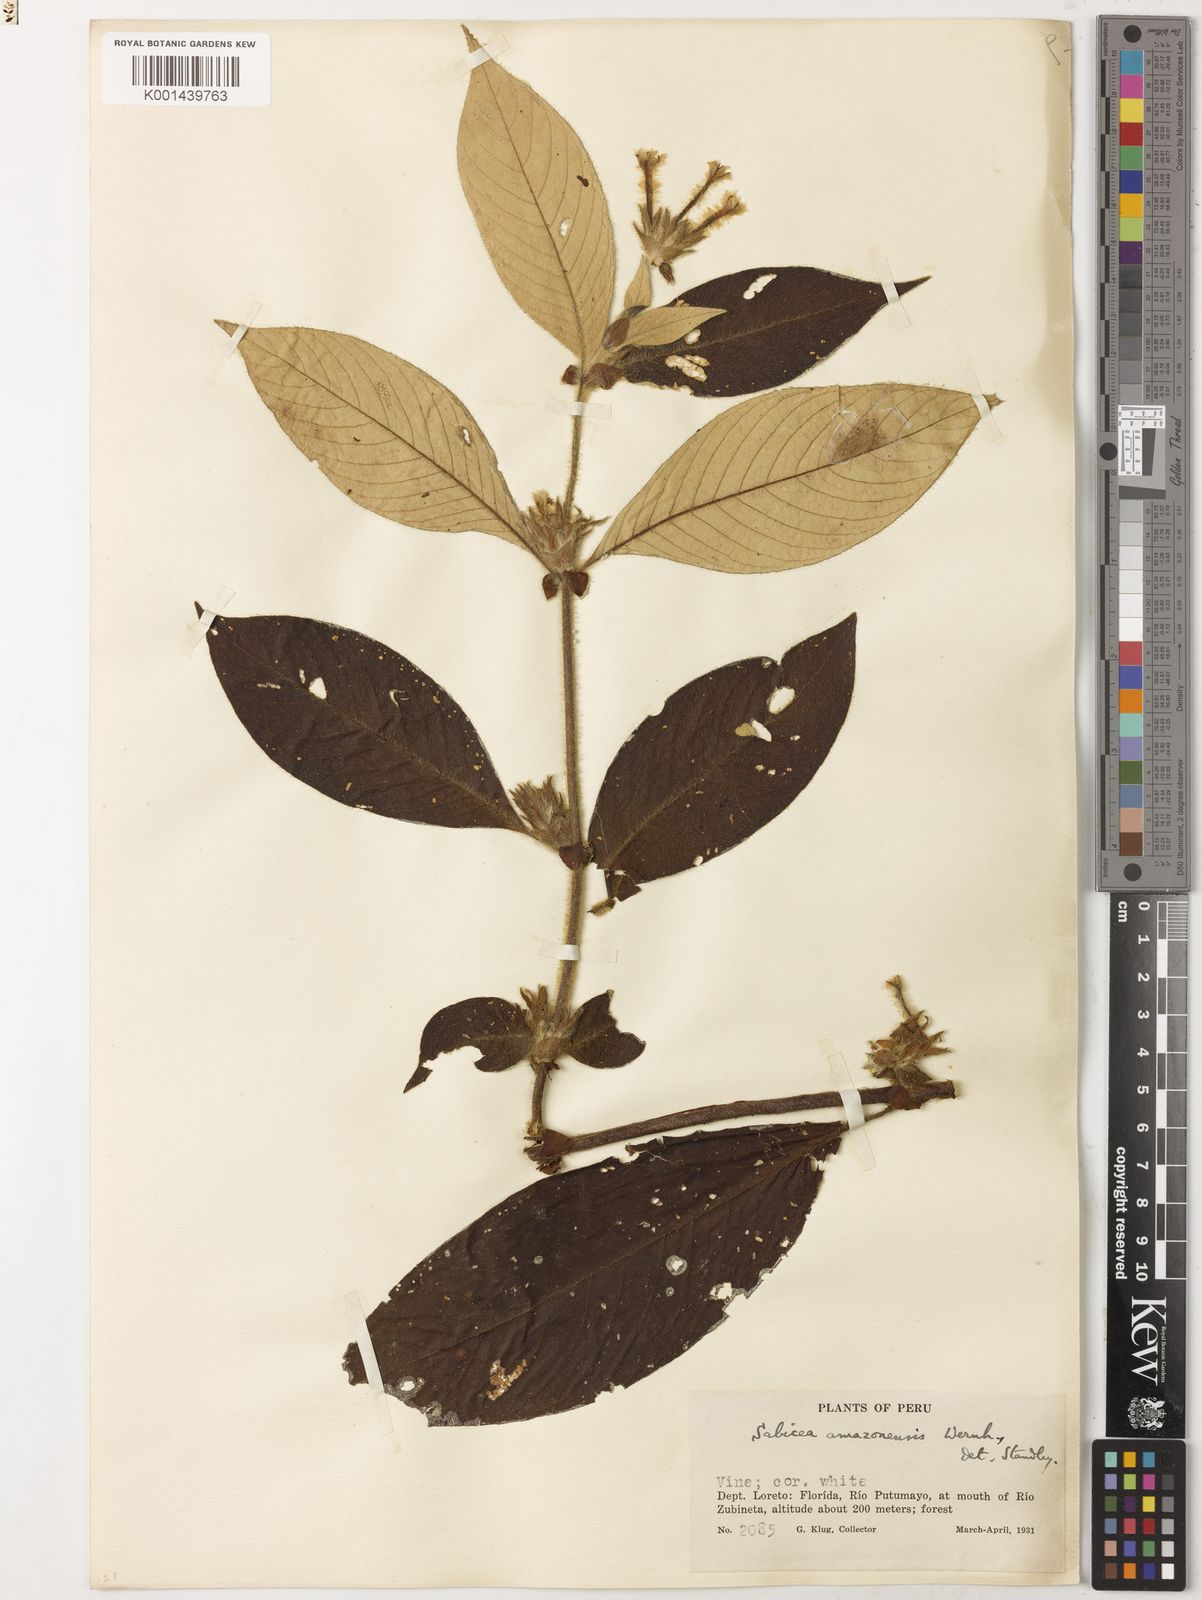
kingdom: Plantae
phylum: Tracheophyta
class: Magnoliopsida
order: Gentianales
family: Rubiaceae
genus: Sabicea
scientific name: Sabicea amazonensis
